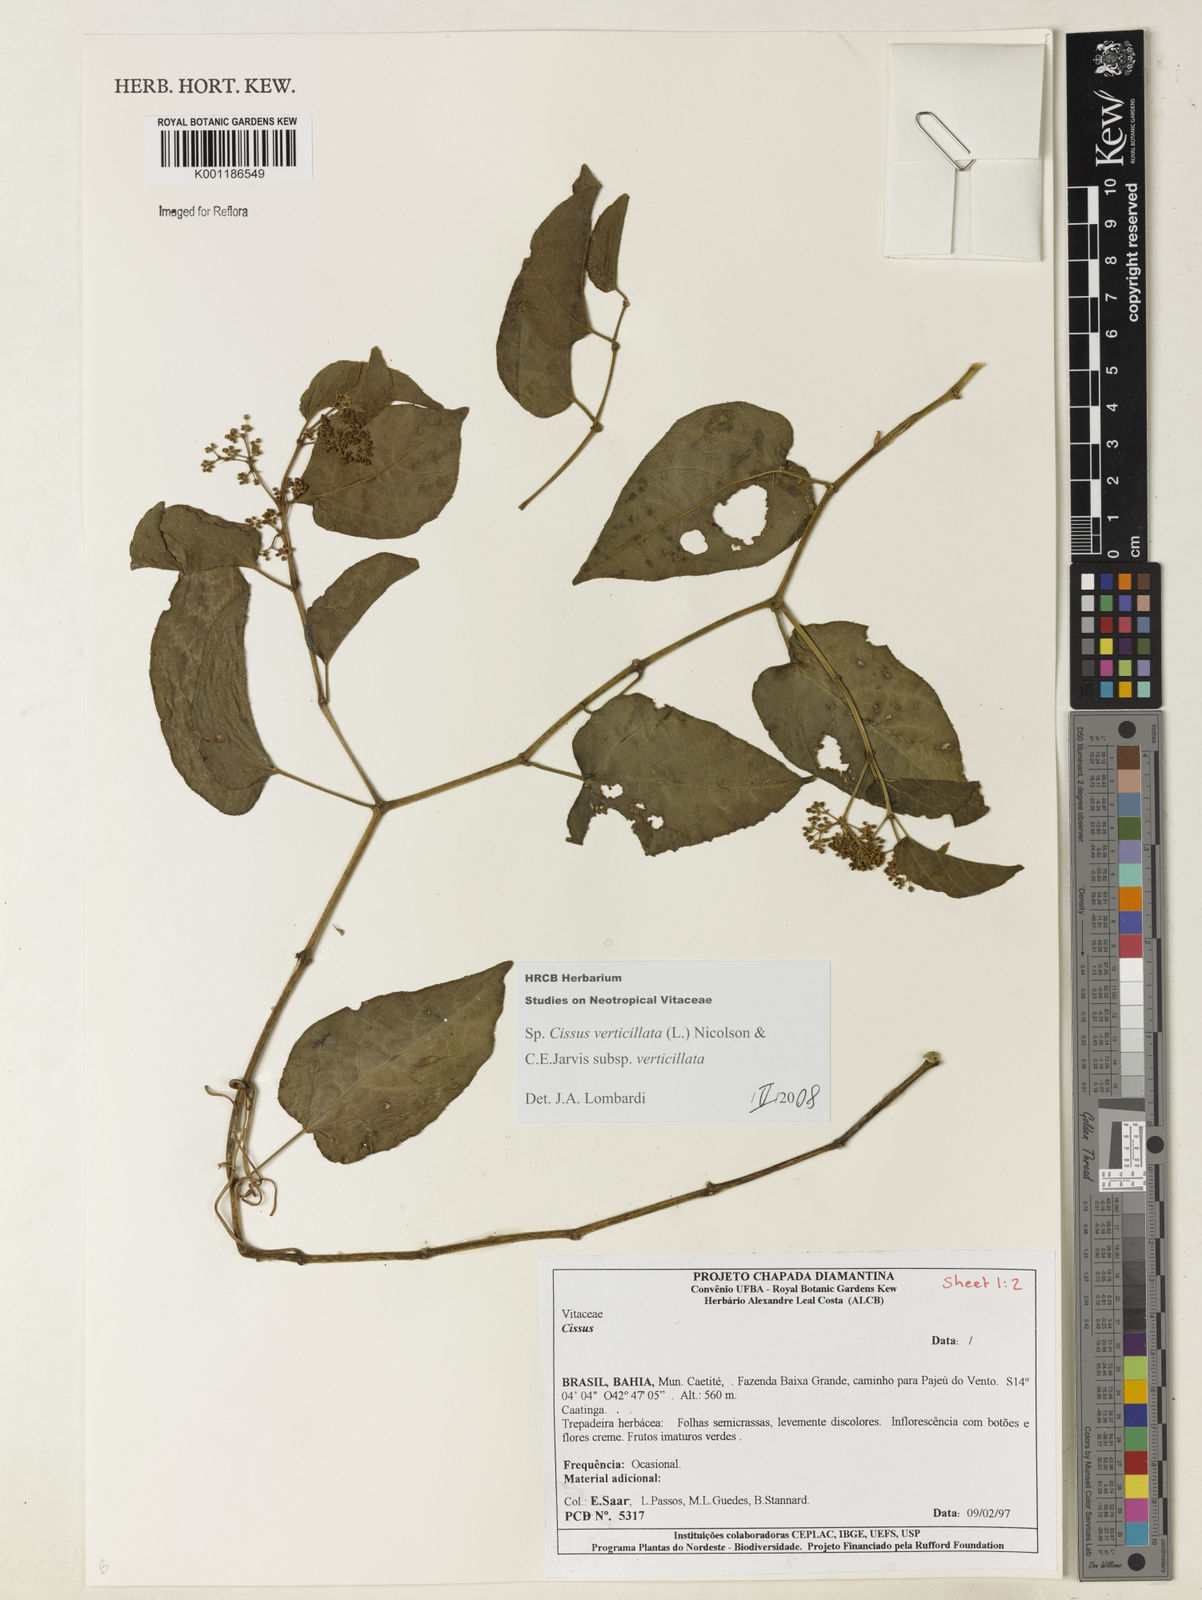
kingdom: Plantae
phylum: Tracheophyta
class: Magnoliopsida
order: Vitales
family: Vitaceae
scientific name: Vitaceae
